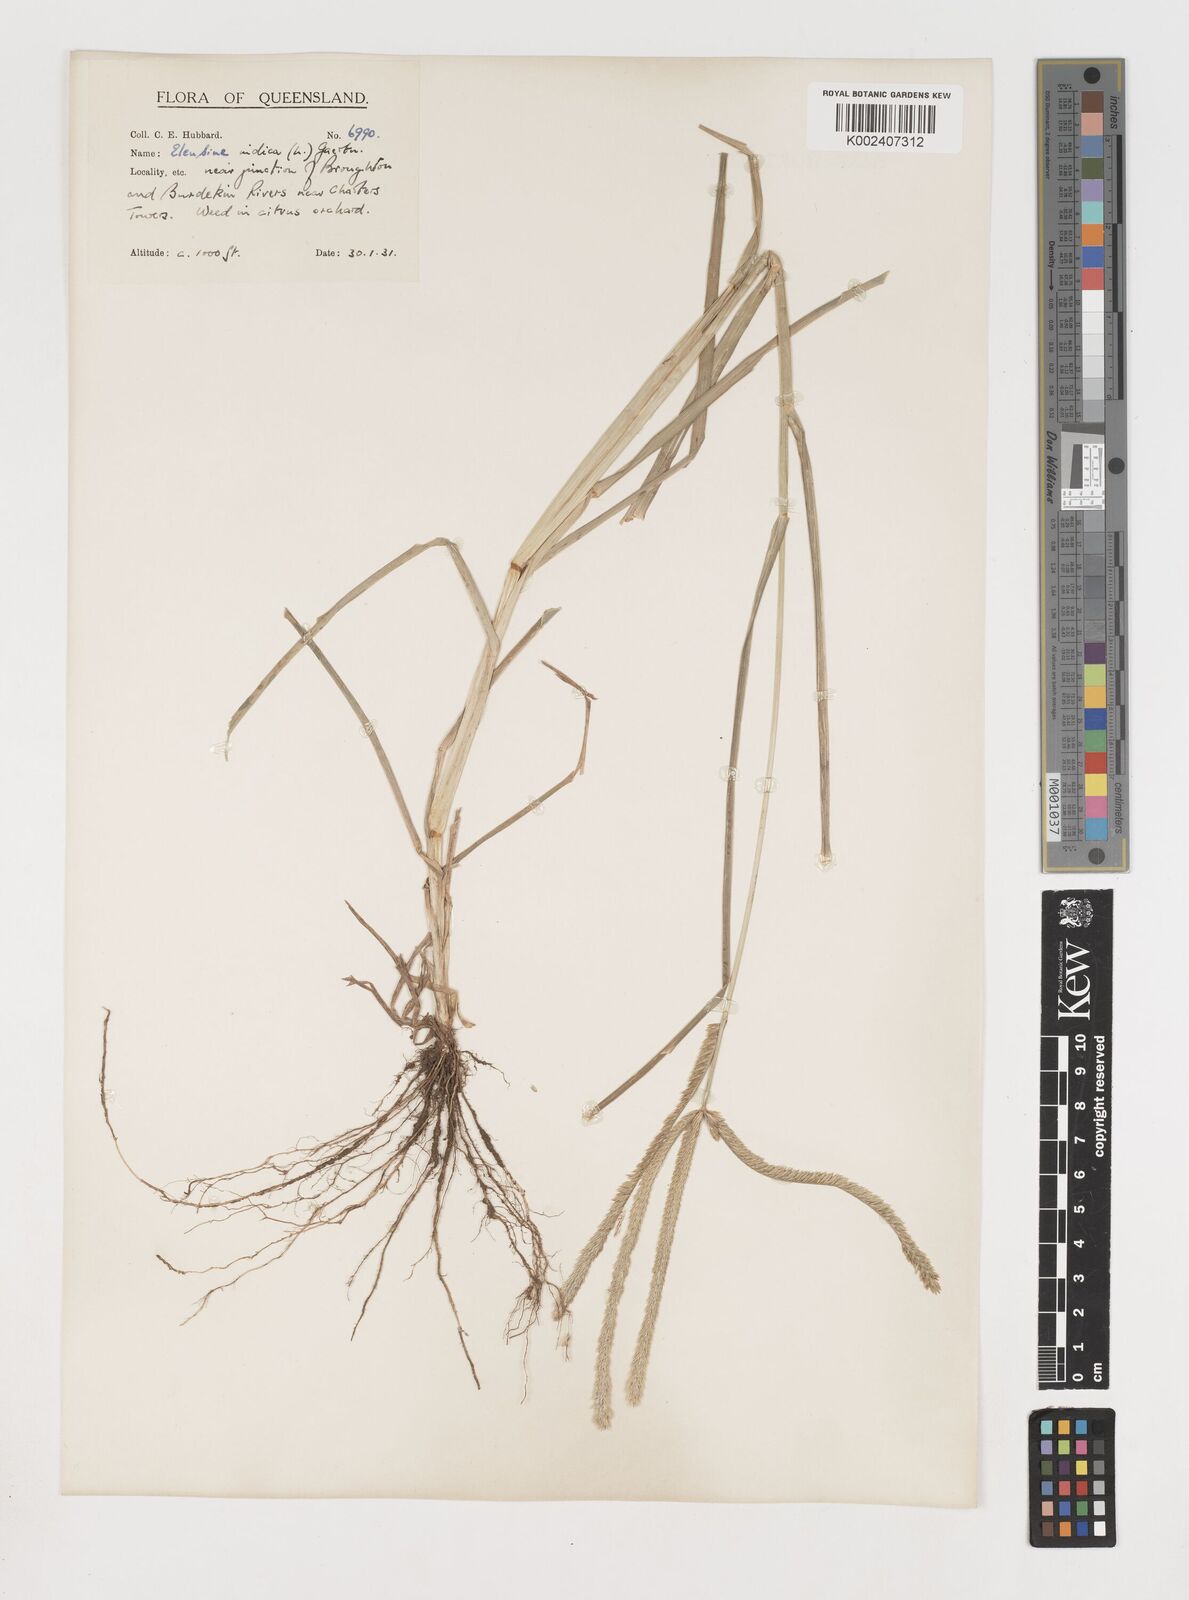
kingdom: Plantae
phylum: Tracheophyta
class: Liliopsida
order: Poales
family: Poaceae
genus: Eleusine
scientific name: Eleusine indica
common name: Yard-grass
